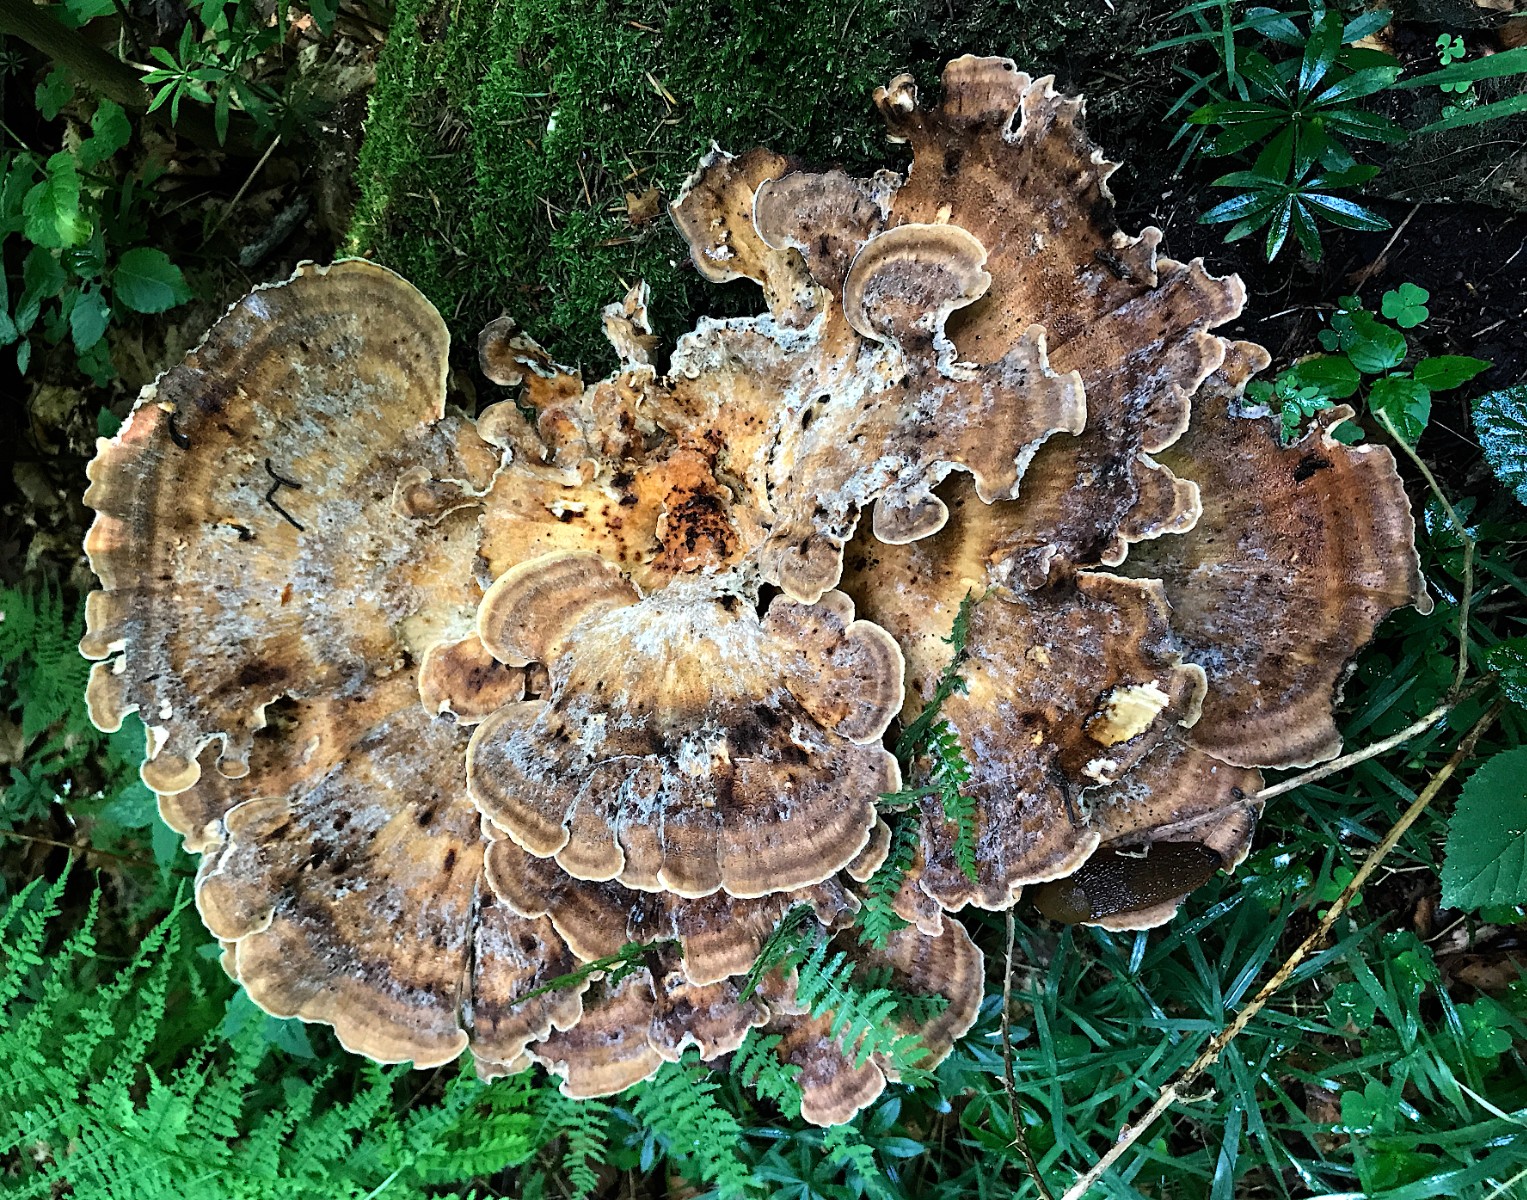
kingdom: Fungi
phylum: Basidiomycota
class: Agaricomycetes
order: Polyporales
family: Meripilaceae
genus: Meripilus
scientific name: Meripilus giganteus
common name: kæmpeporesvamp
